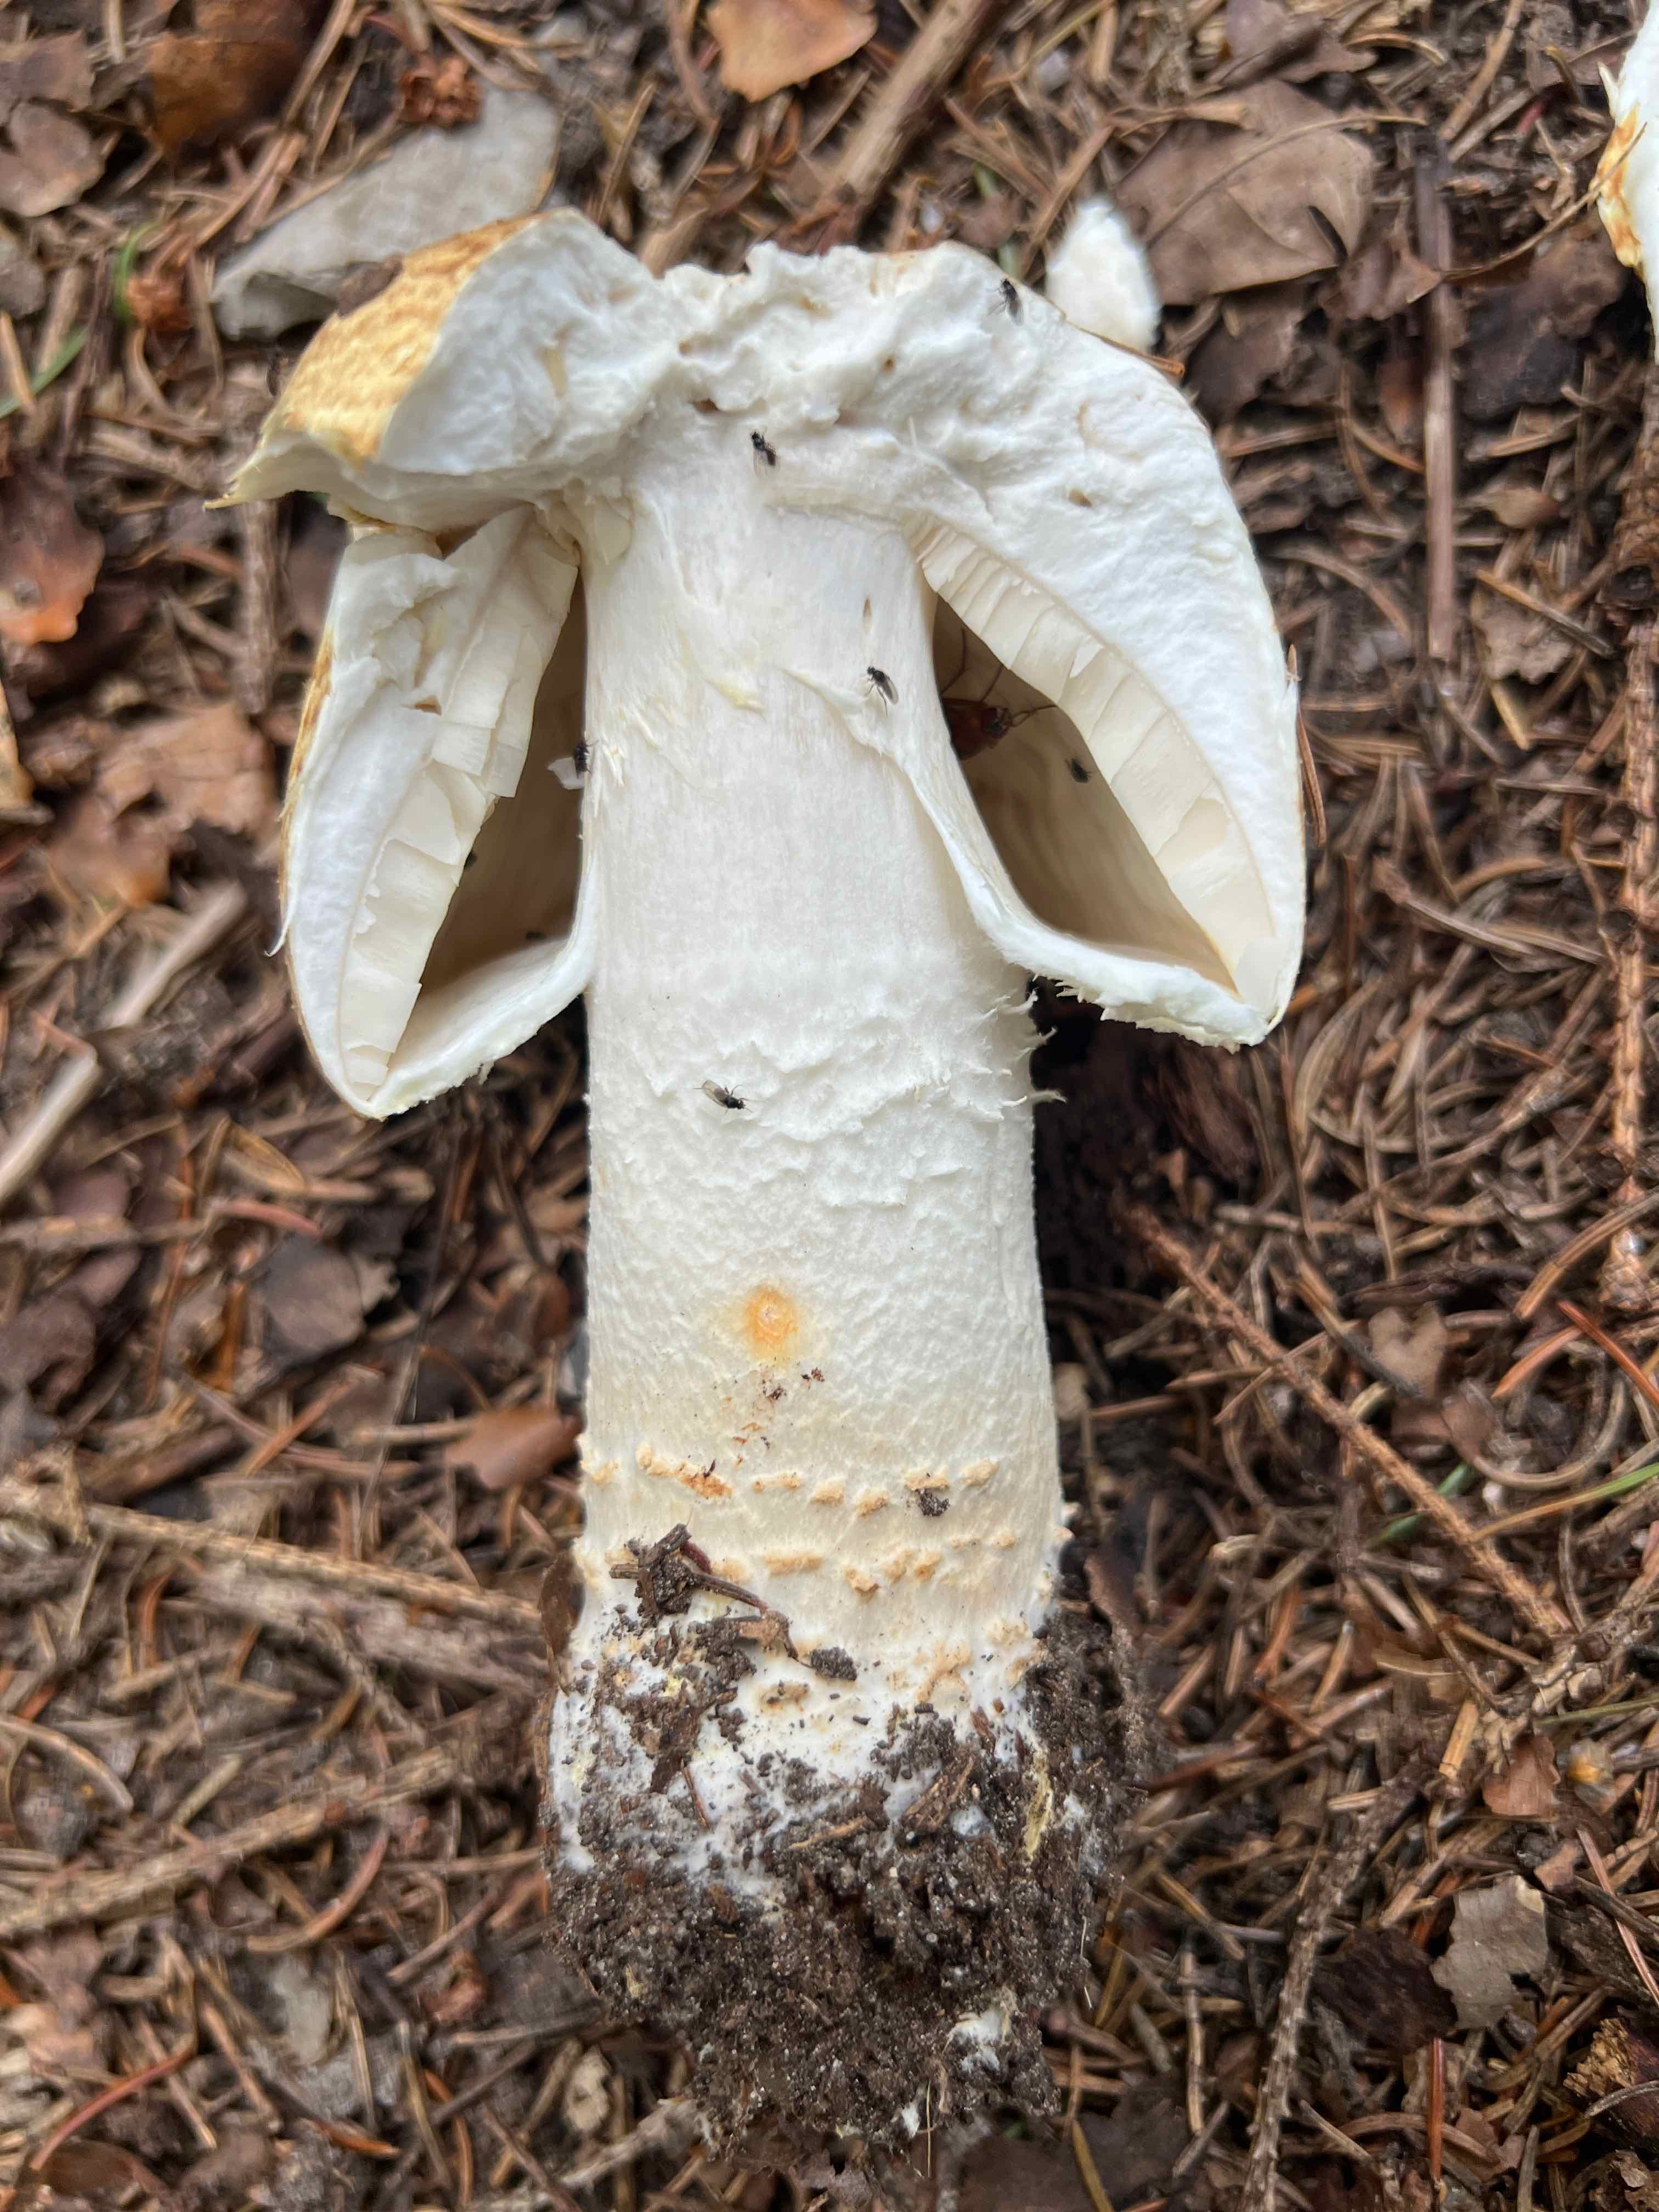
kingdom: Fungi
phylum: Basidiomycota
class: Agaricomycetes
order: Agaricales
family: Agaricaceae
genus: Agaricus
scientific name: Agaricus augustus
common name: prægtig champignon
